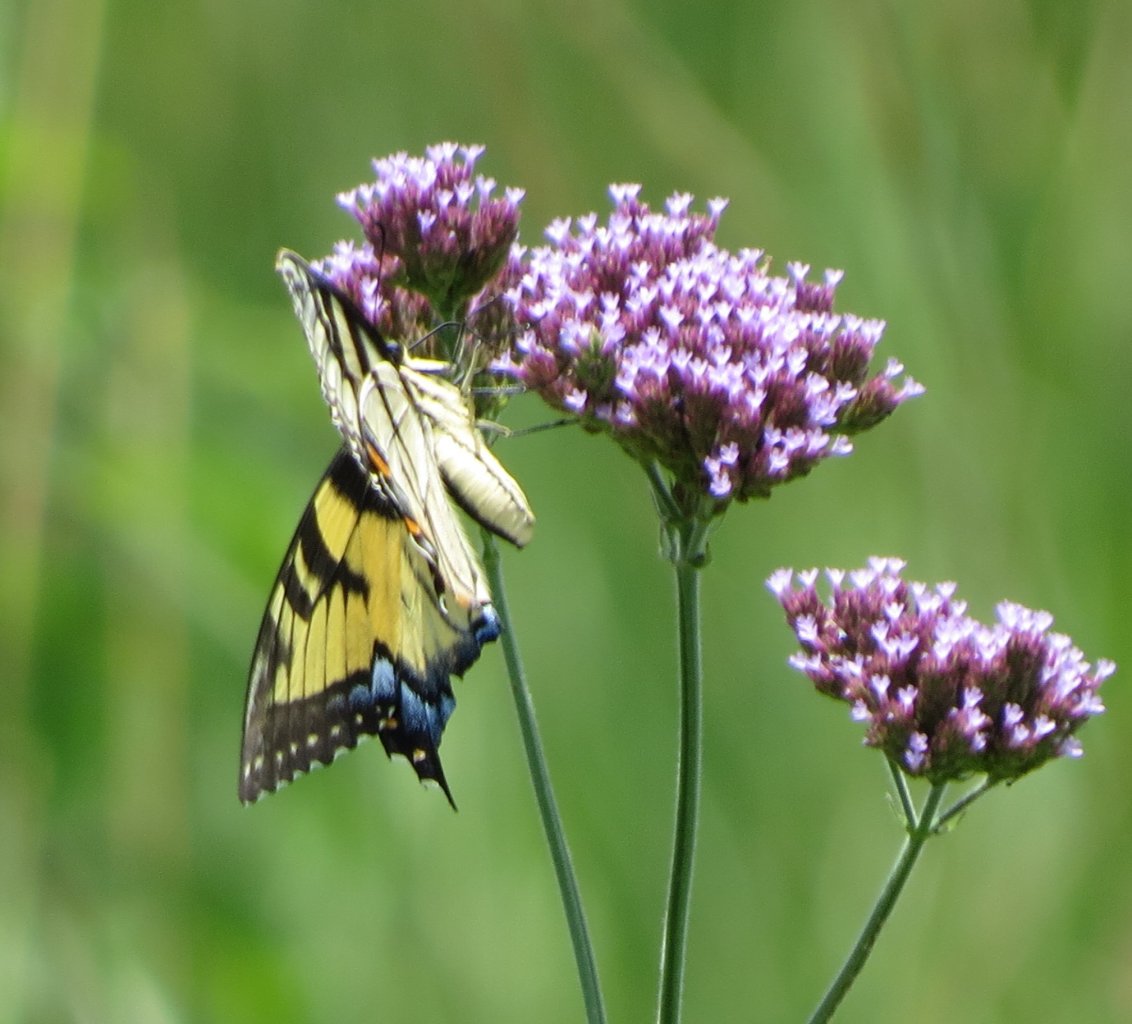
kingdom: Animalia
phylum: Arthropoda
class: Insecta
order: Lepidoptera
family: Papilionidae
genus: Pterourus
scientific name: Pterourus glaucus
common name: Eastern Tiger Swallowtail
